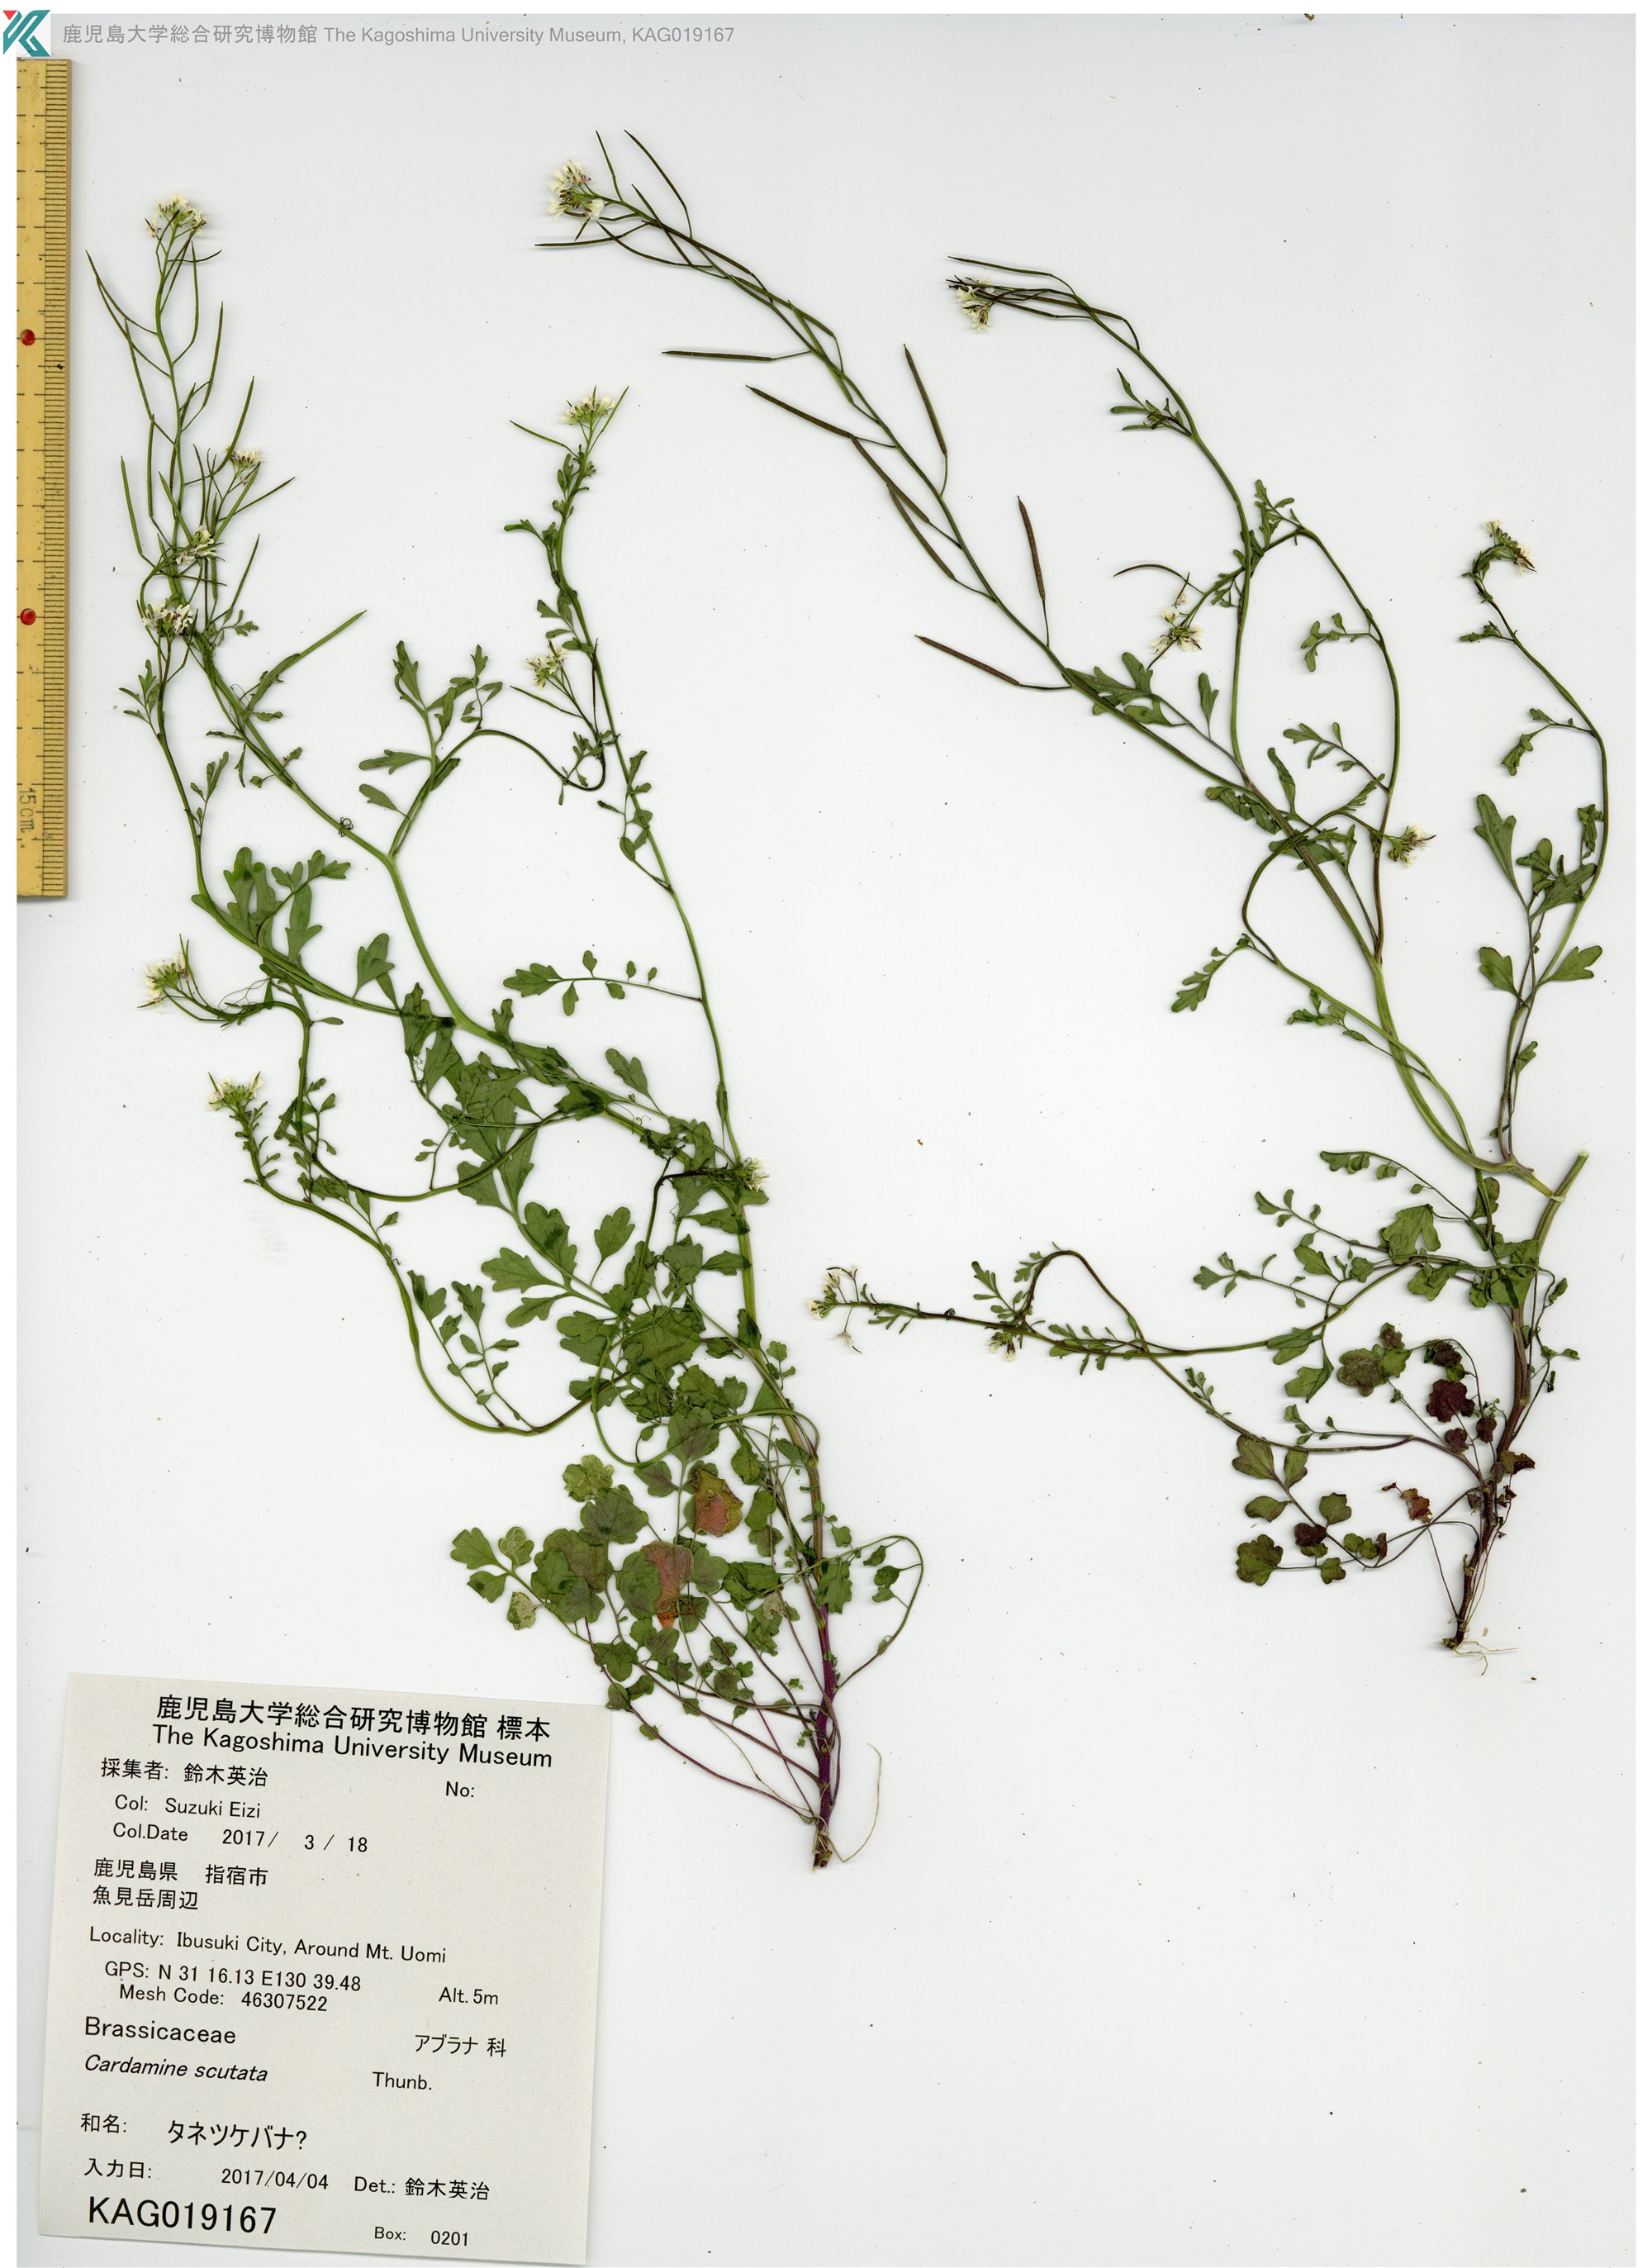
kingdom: Plantae
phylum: Tracheophyta
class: Magnoliopsida
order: Brassicales
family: Brassicaceae
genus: Cardamine
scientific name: Cardamine occulta
